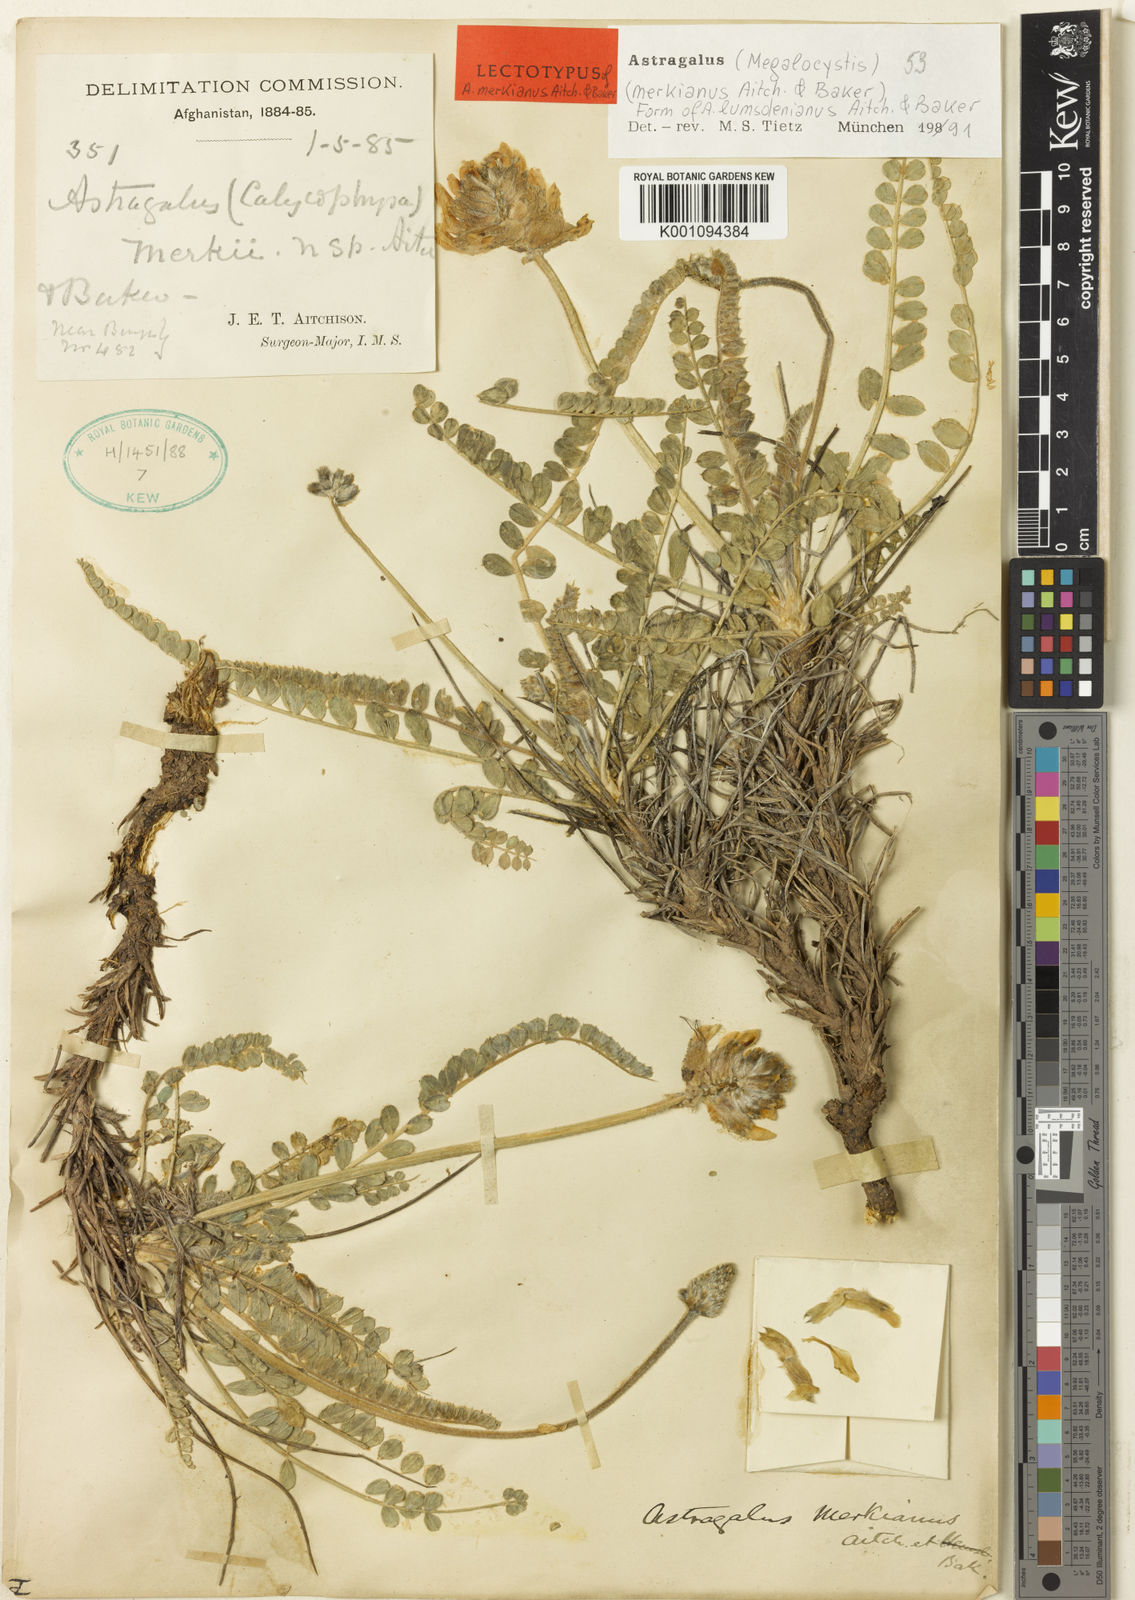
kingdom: Plantae
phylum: Tracheophyta
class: Magnoliopsida
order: Fabales
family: Fabaceae
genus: Astragalus
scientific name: Astragalus
